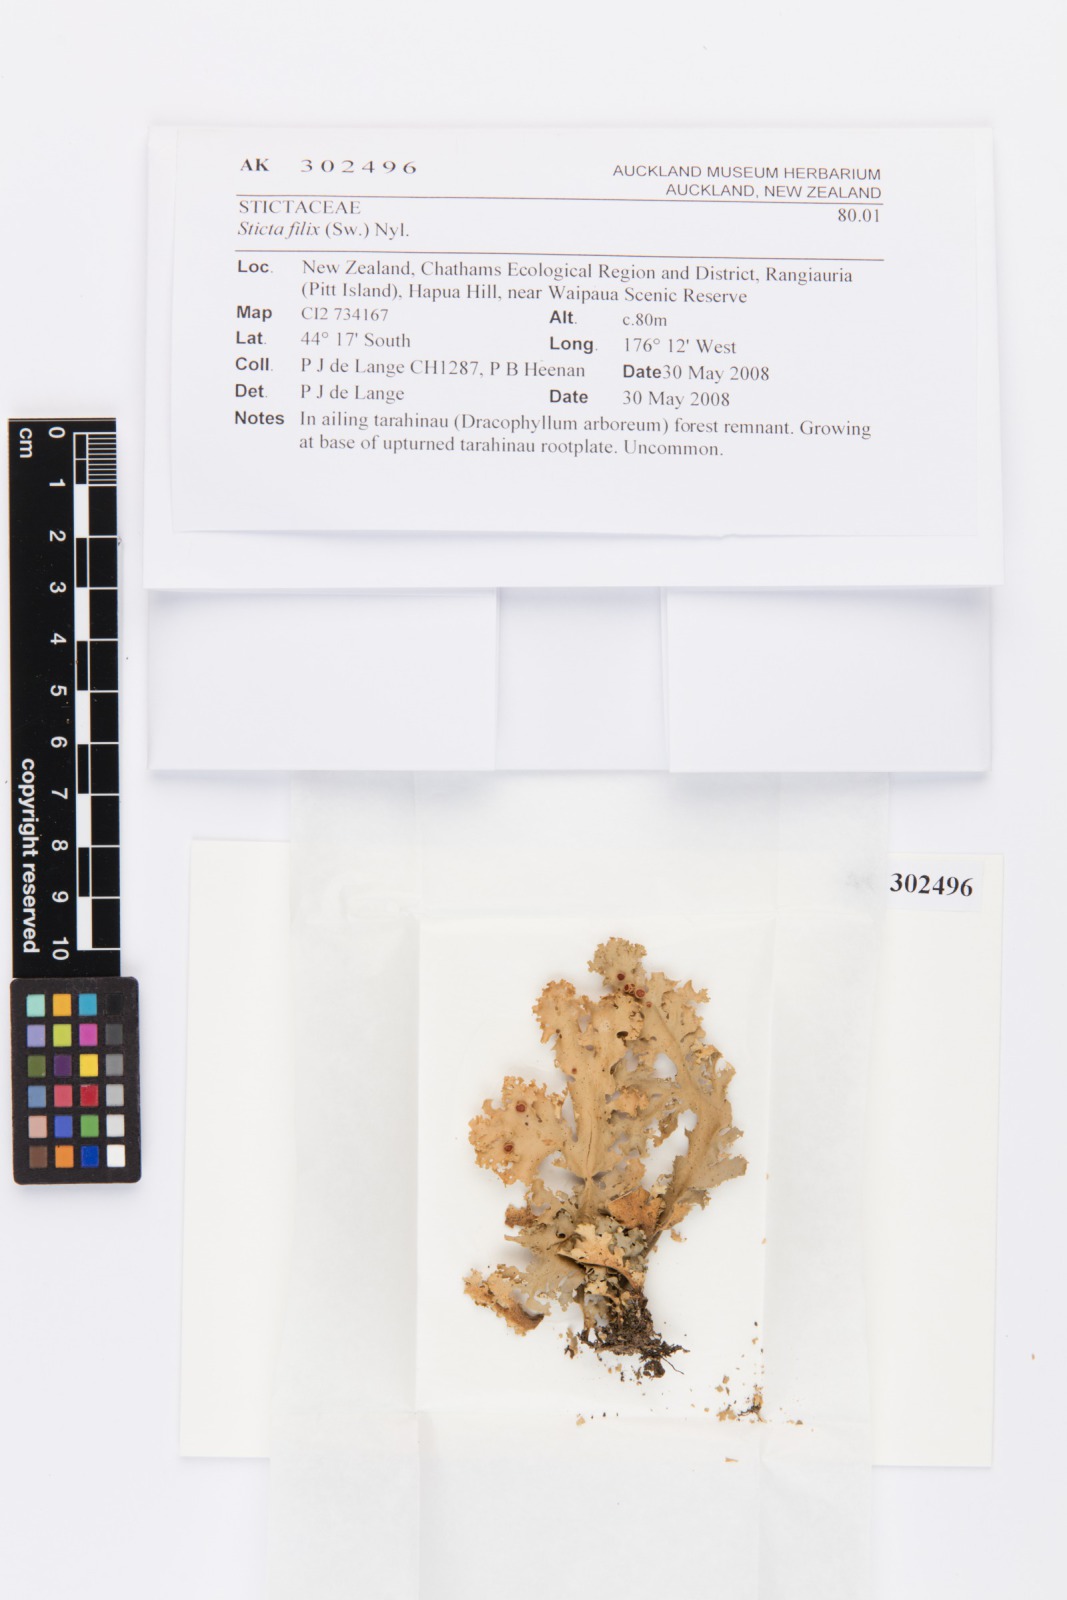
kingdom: Fungi
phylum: Ascomycota
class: Lecanoromycetes
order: Peltigerales
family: Lobariaceae
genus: Sticta
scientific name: Sticta filix
